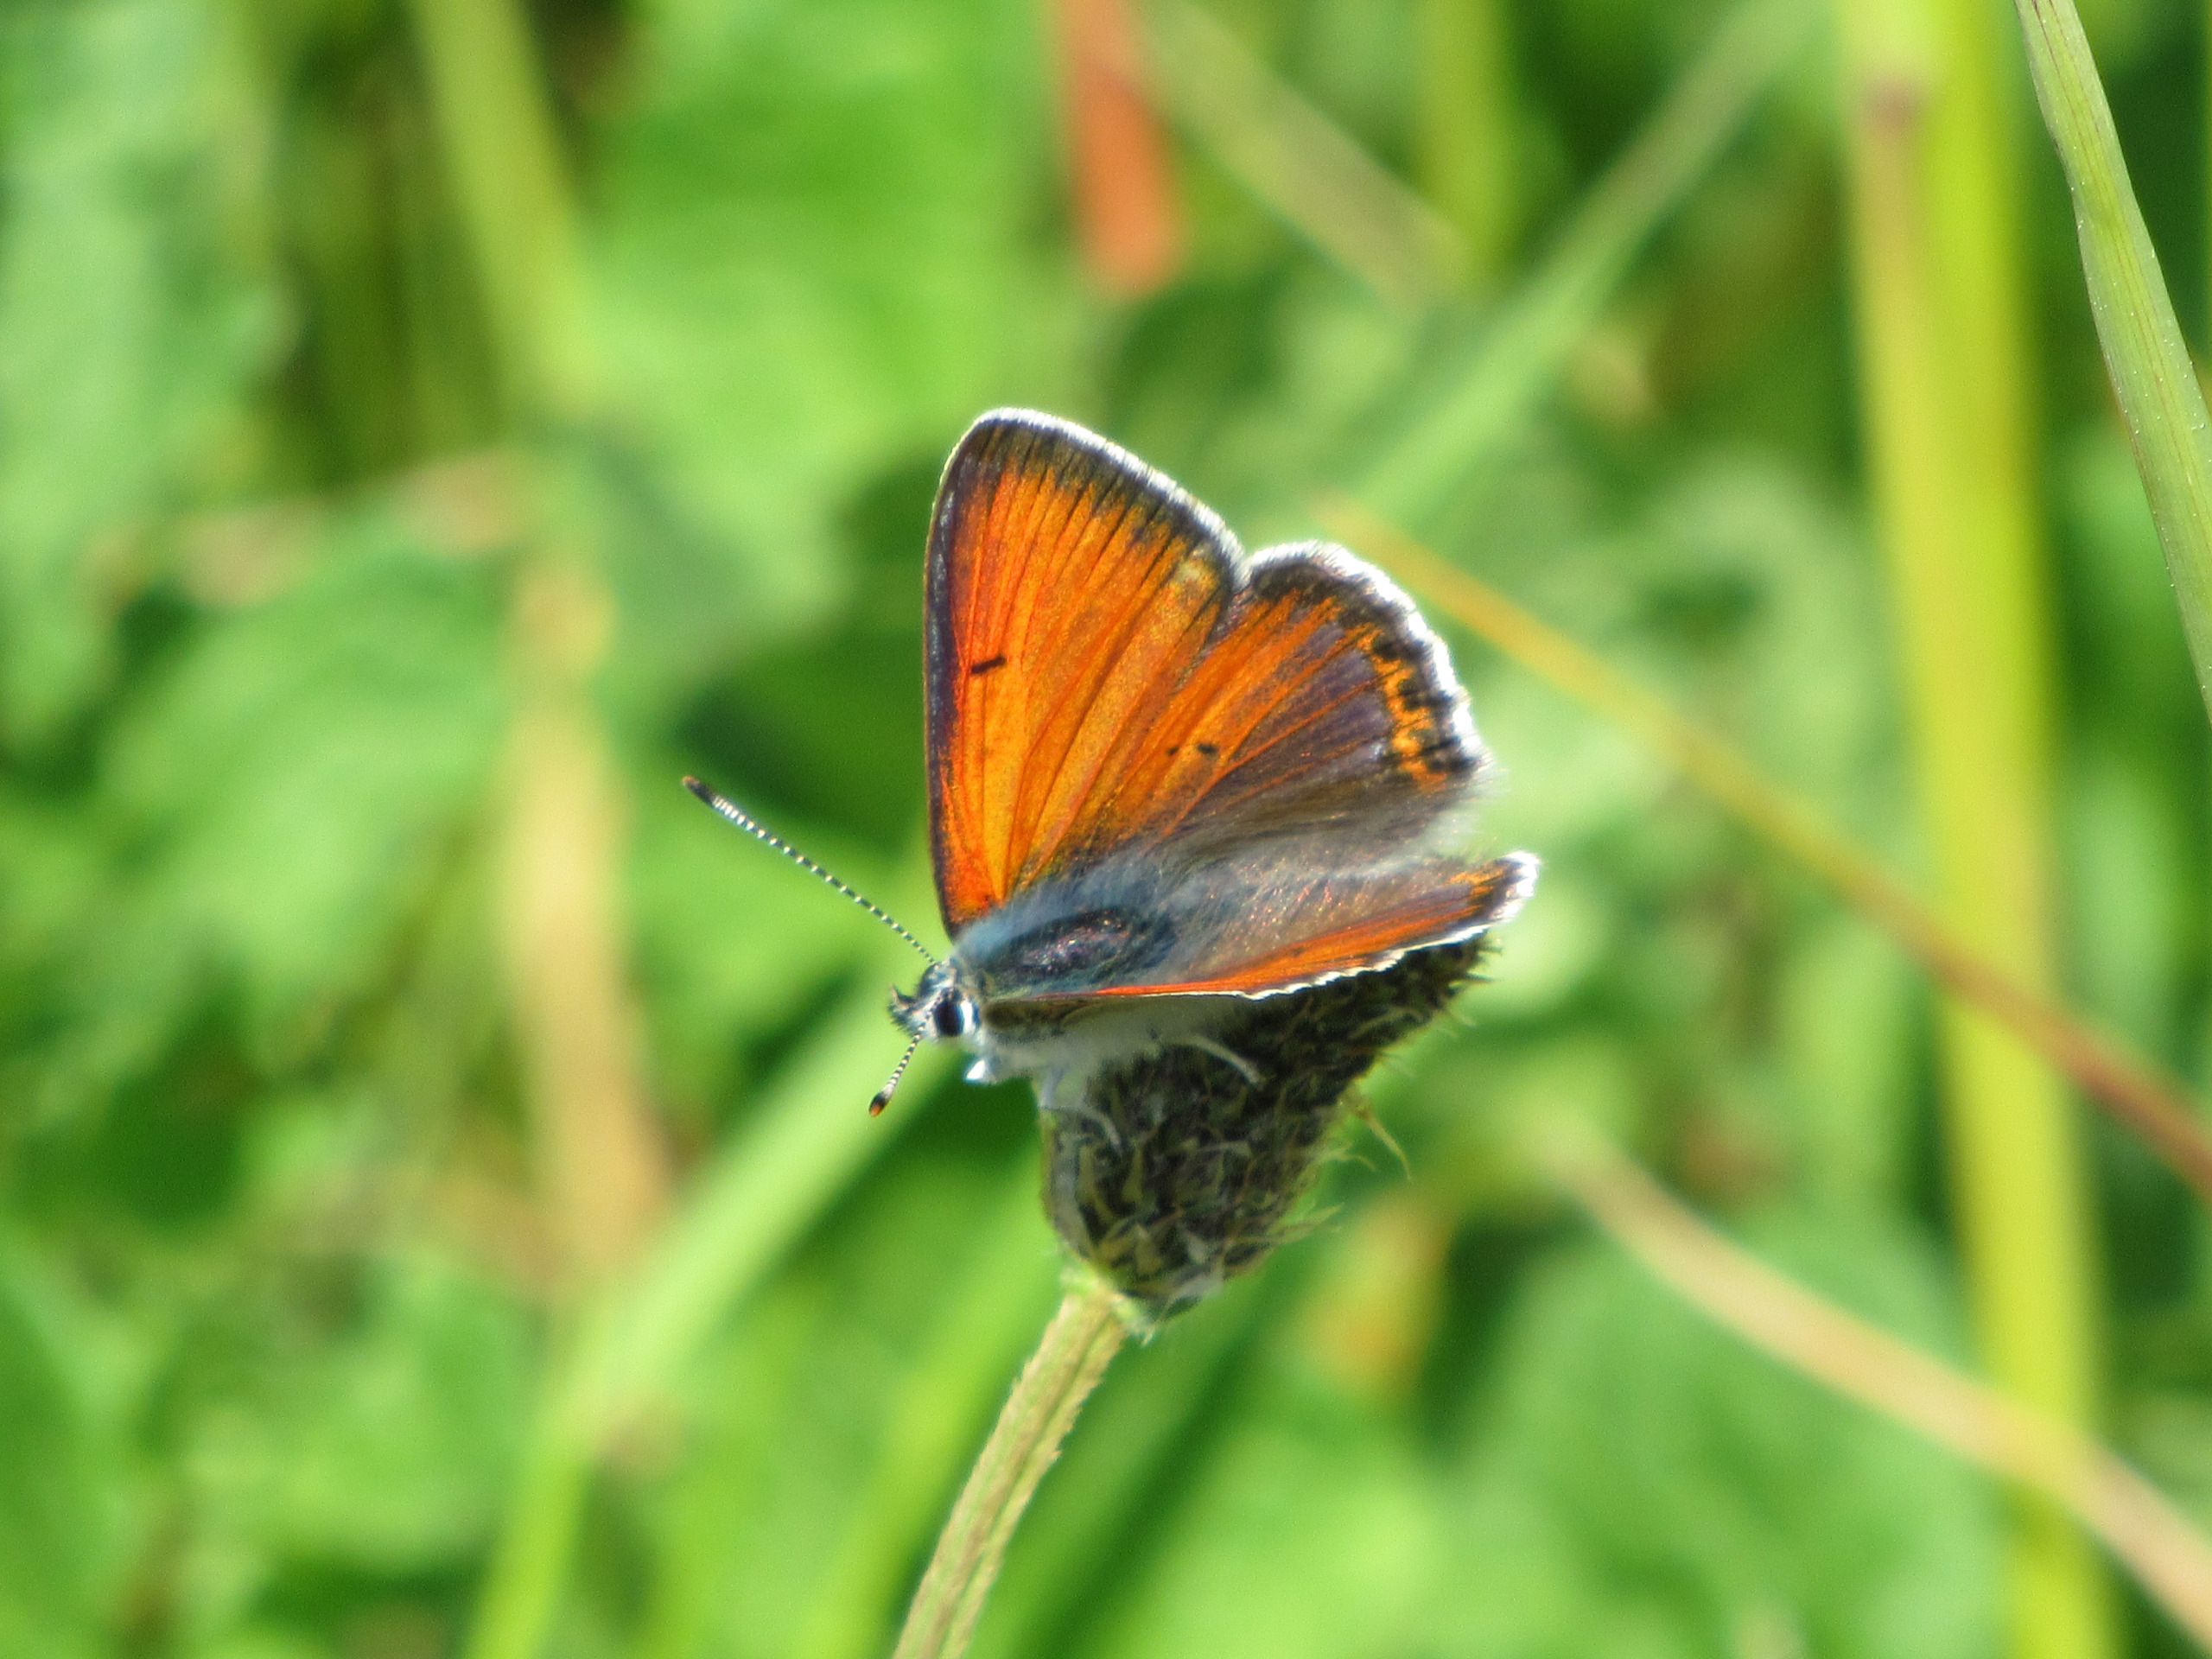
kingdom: Animalia
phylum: Arthropoda
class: Insecta
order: Lepidoptera
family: Lycaenidae
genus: Palaeochrysophanus
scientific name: Palaeochrysophanus hippothoe
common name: Violetrandet ildfugl
